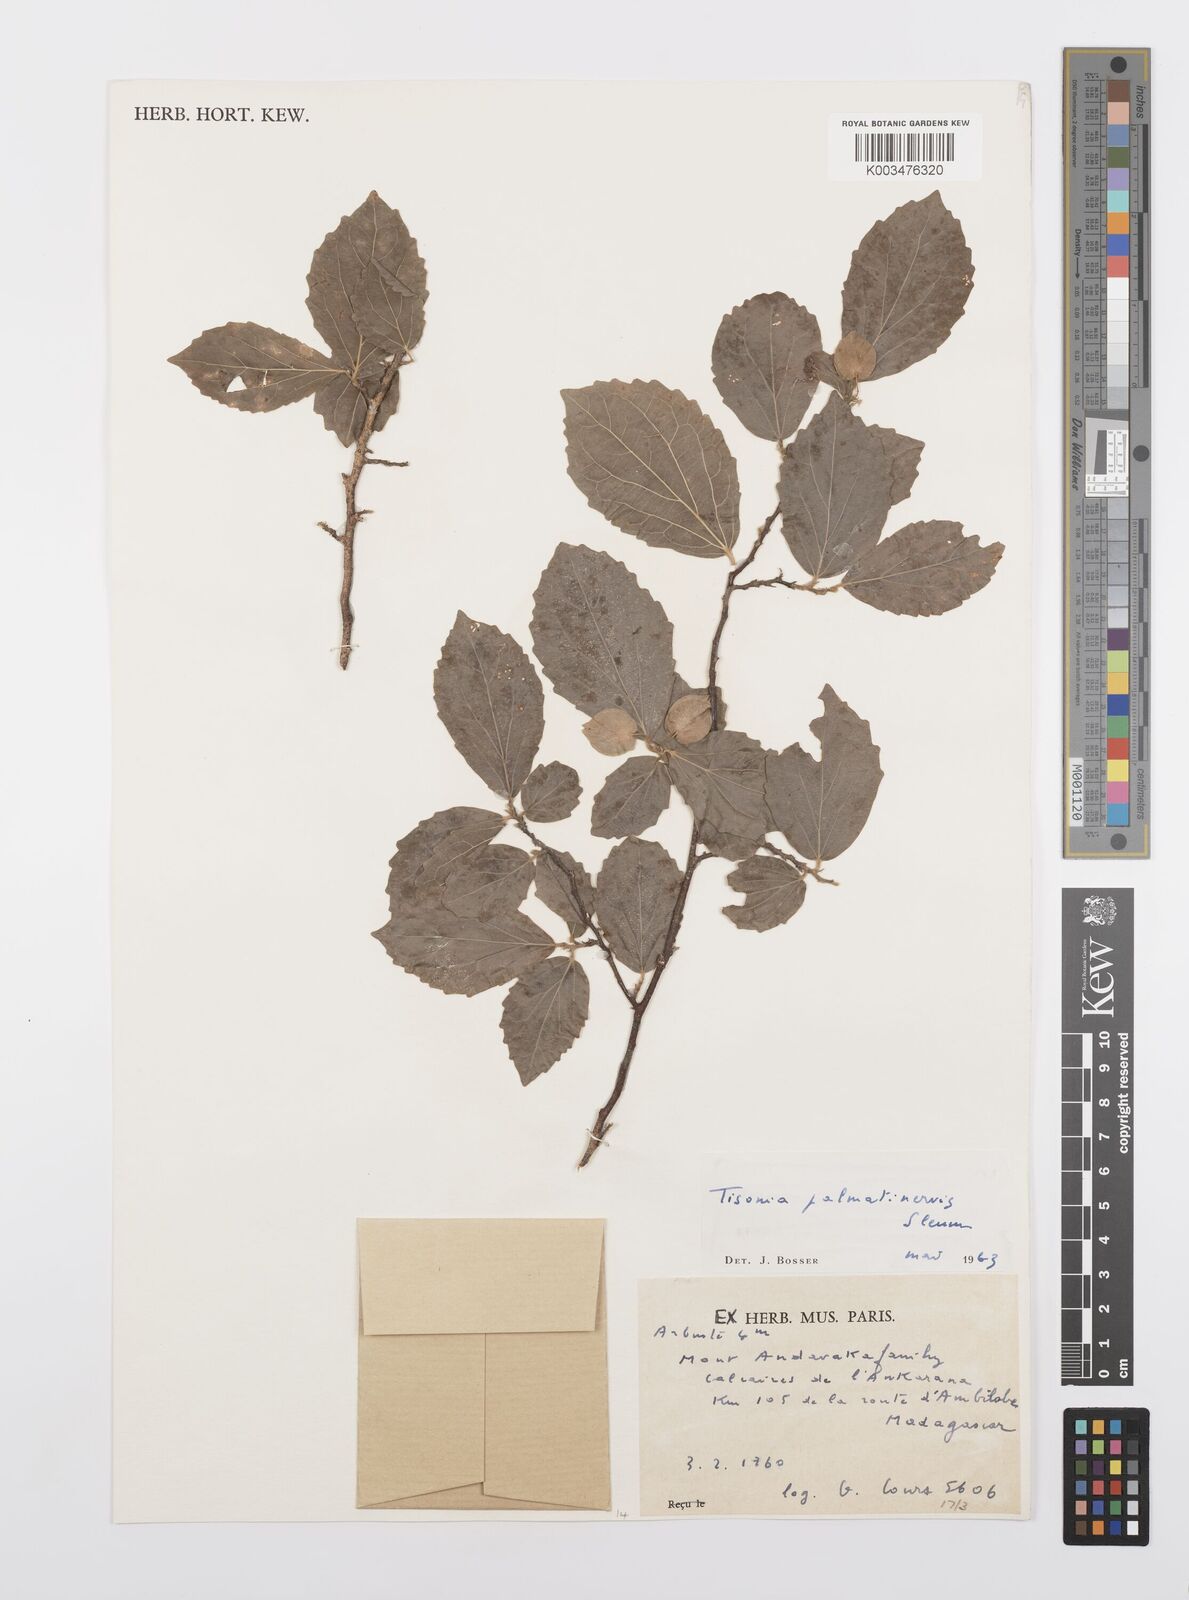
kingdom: Plantae
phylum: Tracheophyta
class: Magnoliopsida
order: Malpighiales
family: Salicaceae
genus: Tisonia
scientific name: Tisonia palmatinervis
